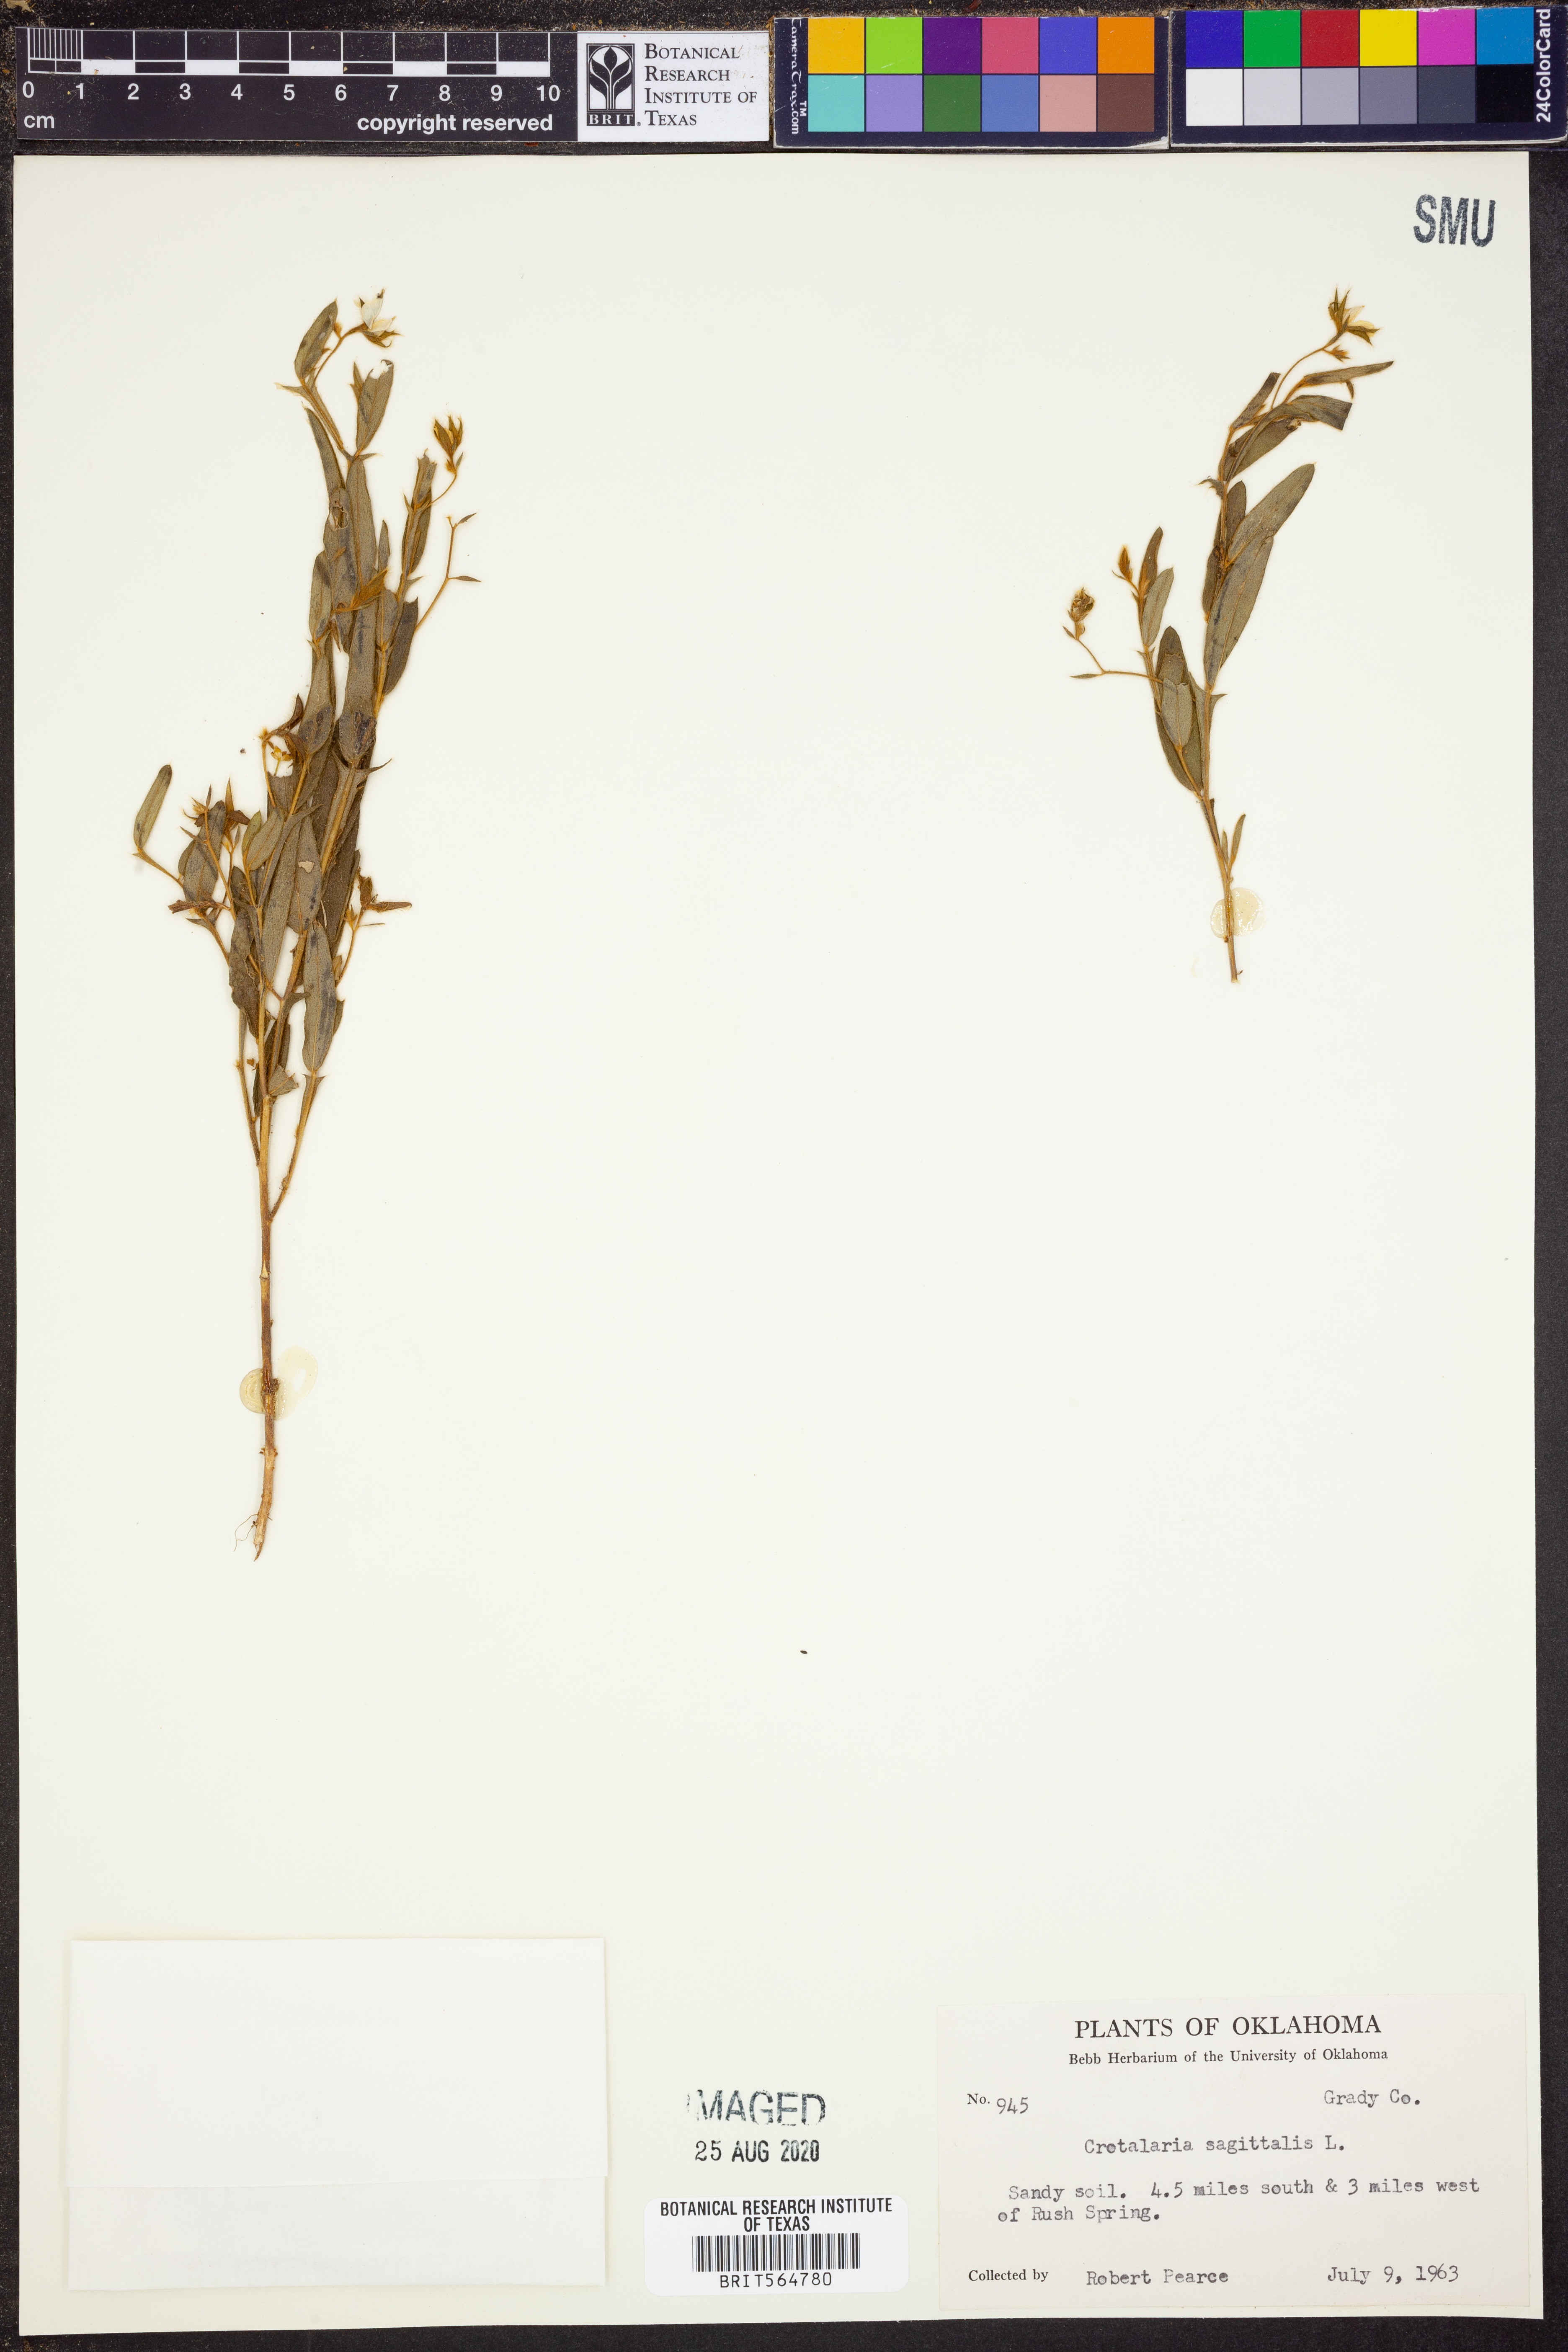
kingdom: Plantae
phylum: Tracheophyta
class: Magnoliopsida
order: Fabales
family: Fabaceae
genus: Crotalaria
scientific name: Crotalaria sagittalis
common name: Arrowhead rattlebox
